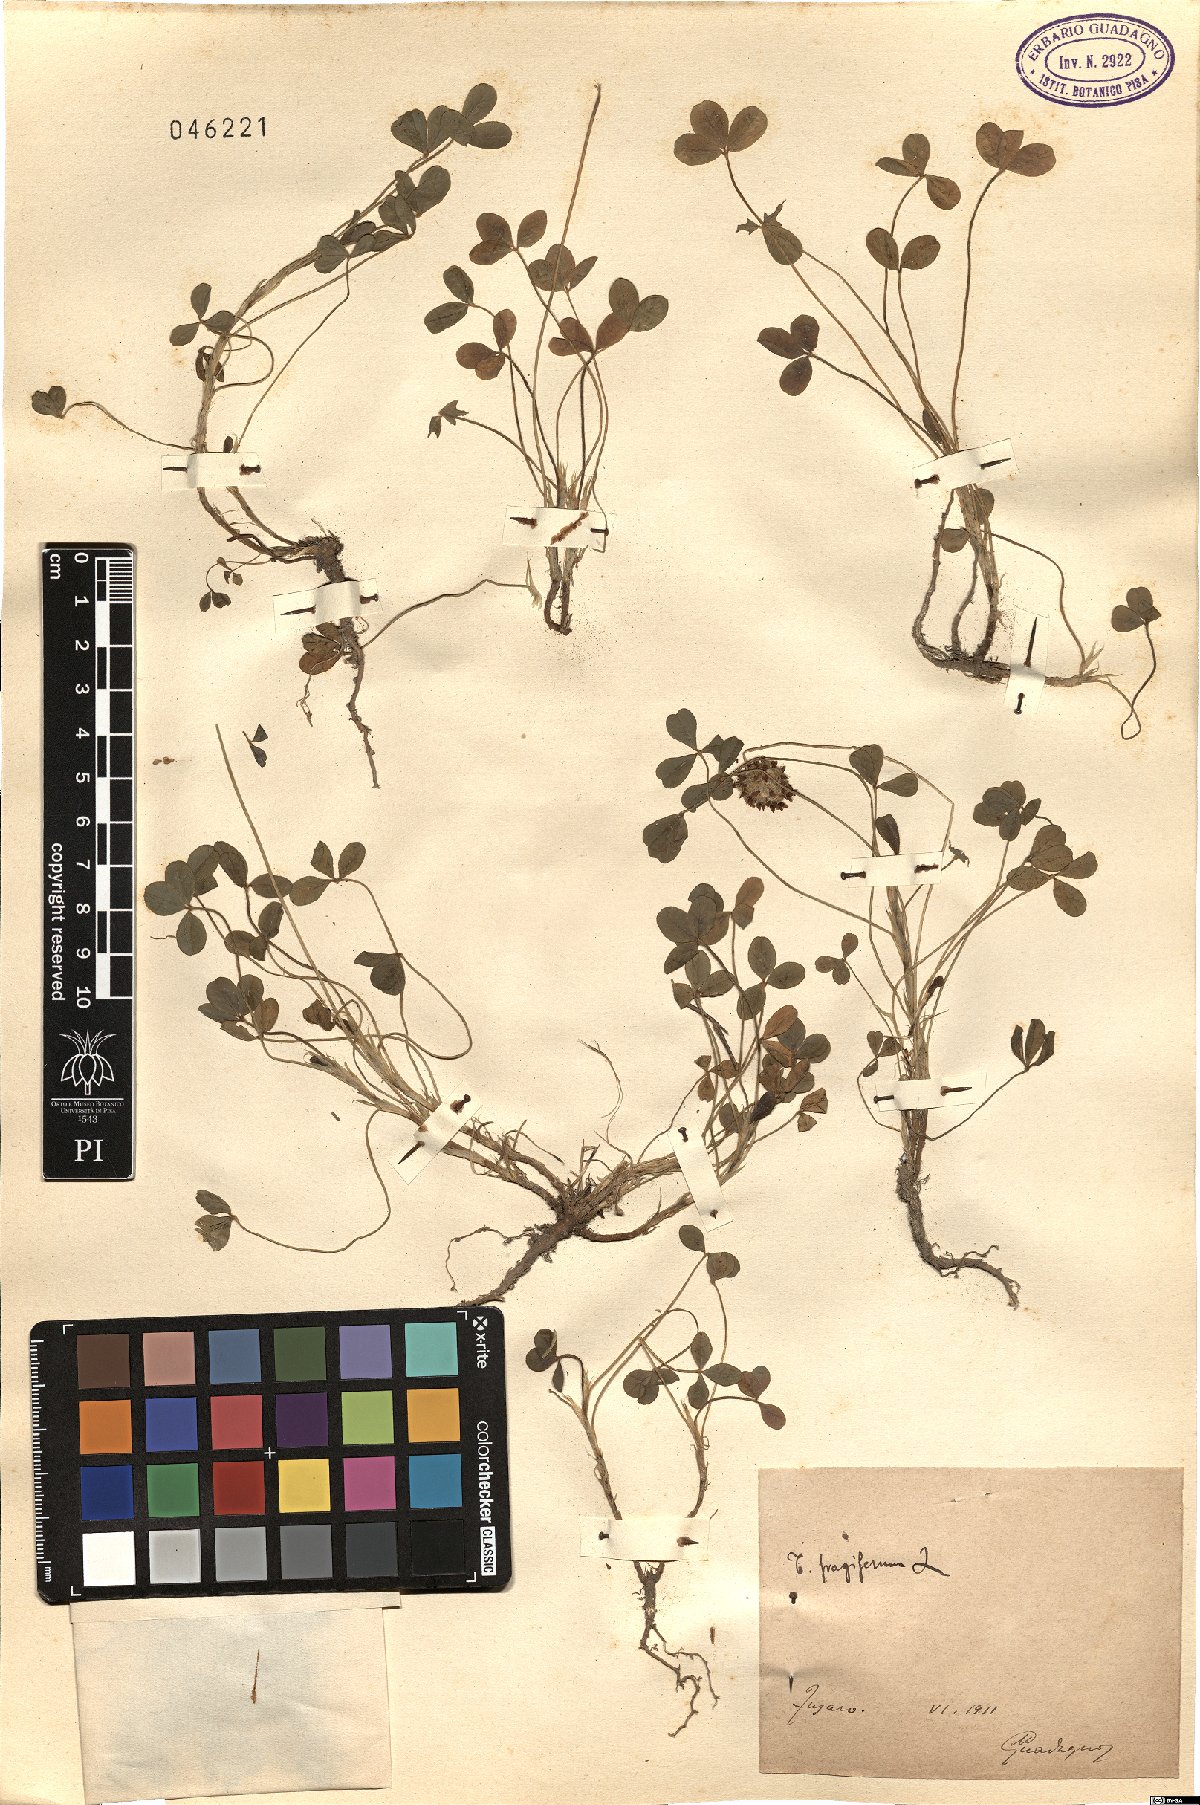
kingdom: Plantae
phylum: Tracheophyta
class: Magnoliopsida
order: Fabales
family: Fabaceae
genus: Trifolium
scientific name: Trifolium fragiferum
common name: Strawberry clover
